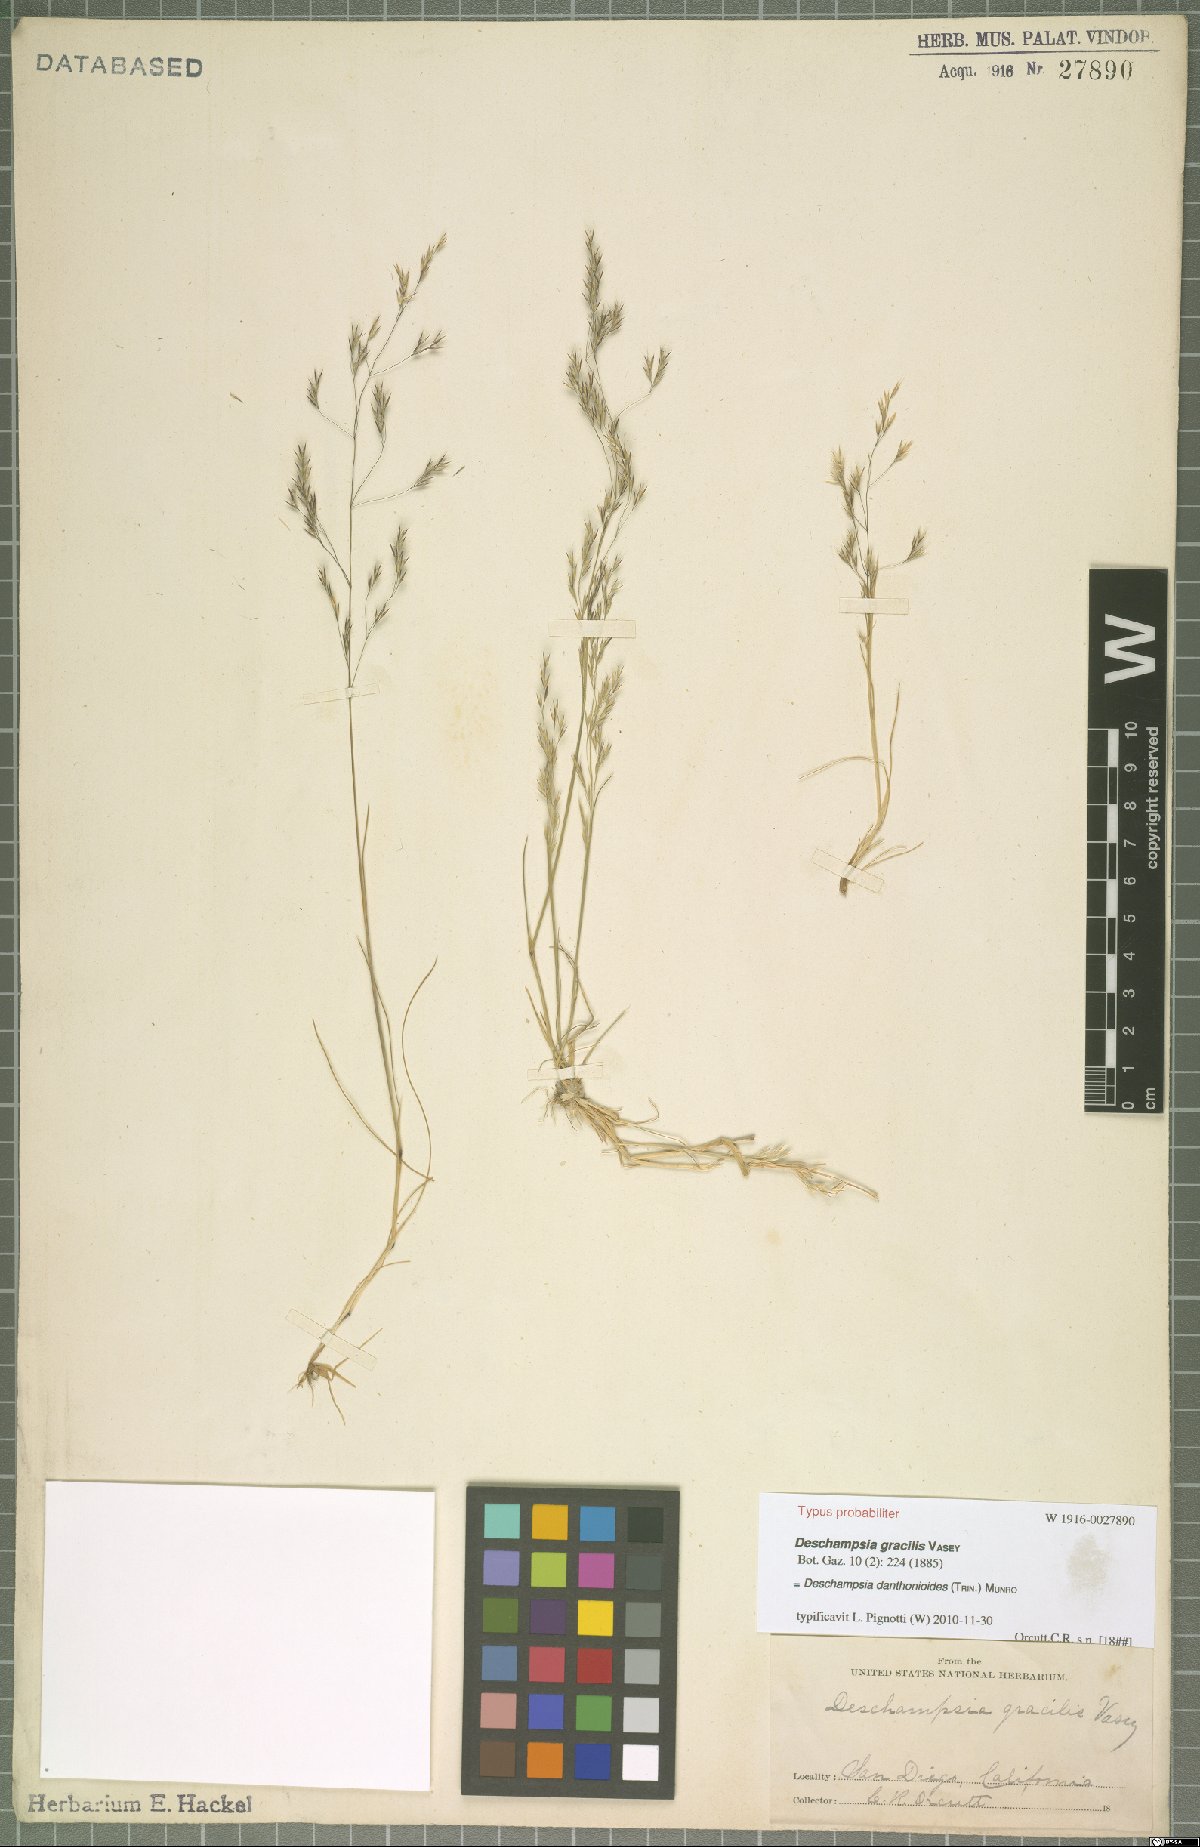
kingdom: Plantae
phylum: Tracheophyta
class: Liliopsida
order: Poales
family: Poaceae
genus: Deschampsia
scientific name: Deschampsia danthonioides
